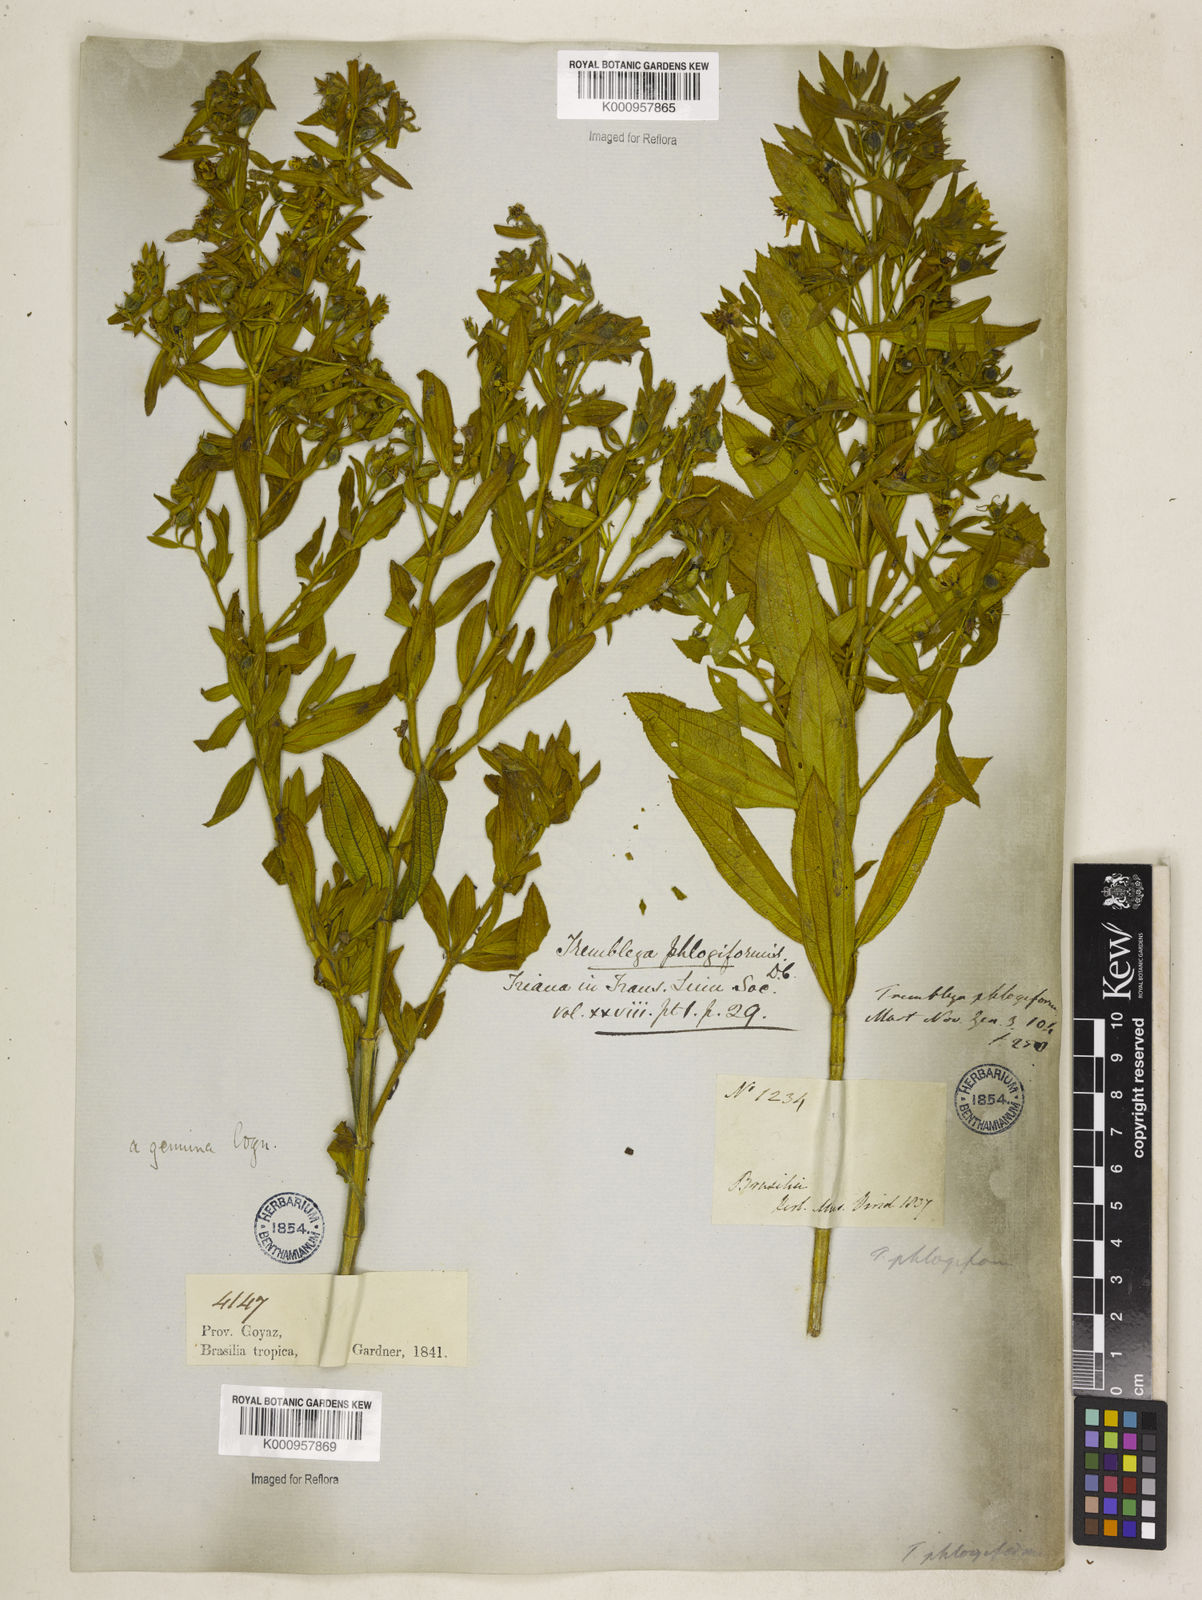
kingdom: Plantae
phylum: Tracheophyta
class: Magnoliopsida
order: Myrtales
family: Melastomataceae
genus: Microlicia
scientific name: Microlicia phlogiformis
